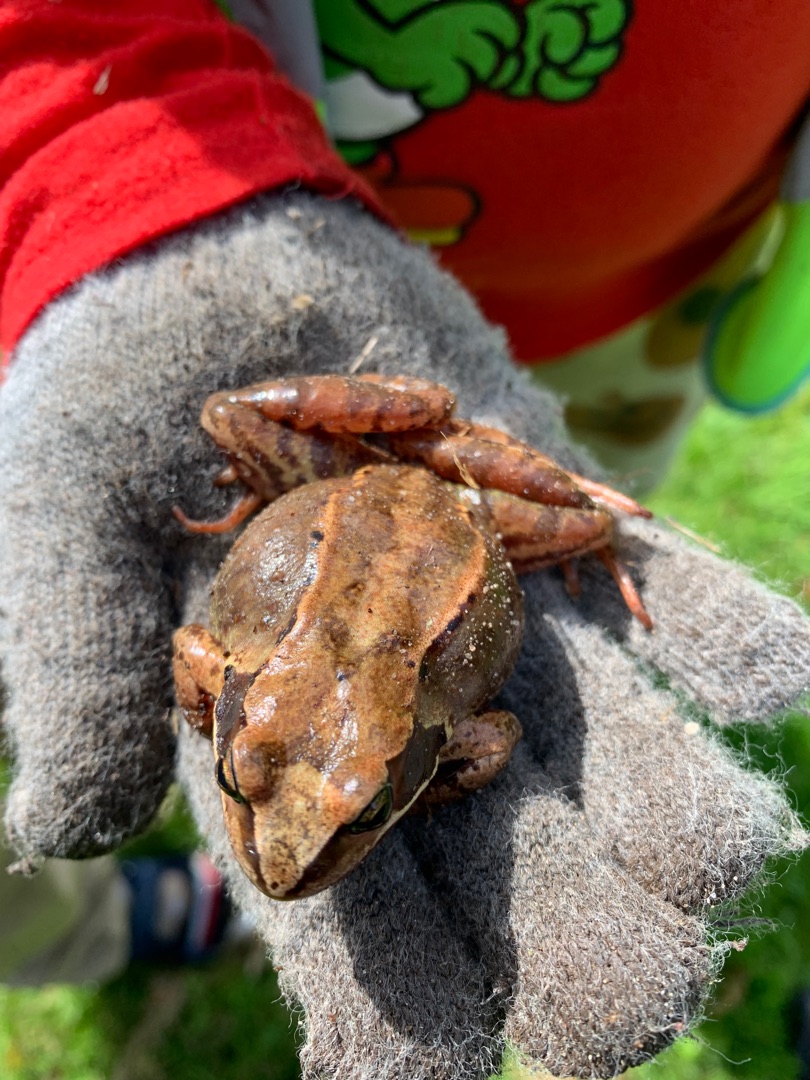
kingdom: Animalia
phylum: Chordata
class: Amphibia
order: Anura
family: Ranidae
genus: Rana
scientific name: Rana temporaria
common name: Butsnudet frø
